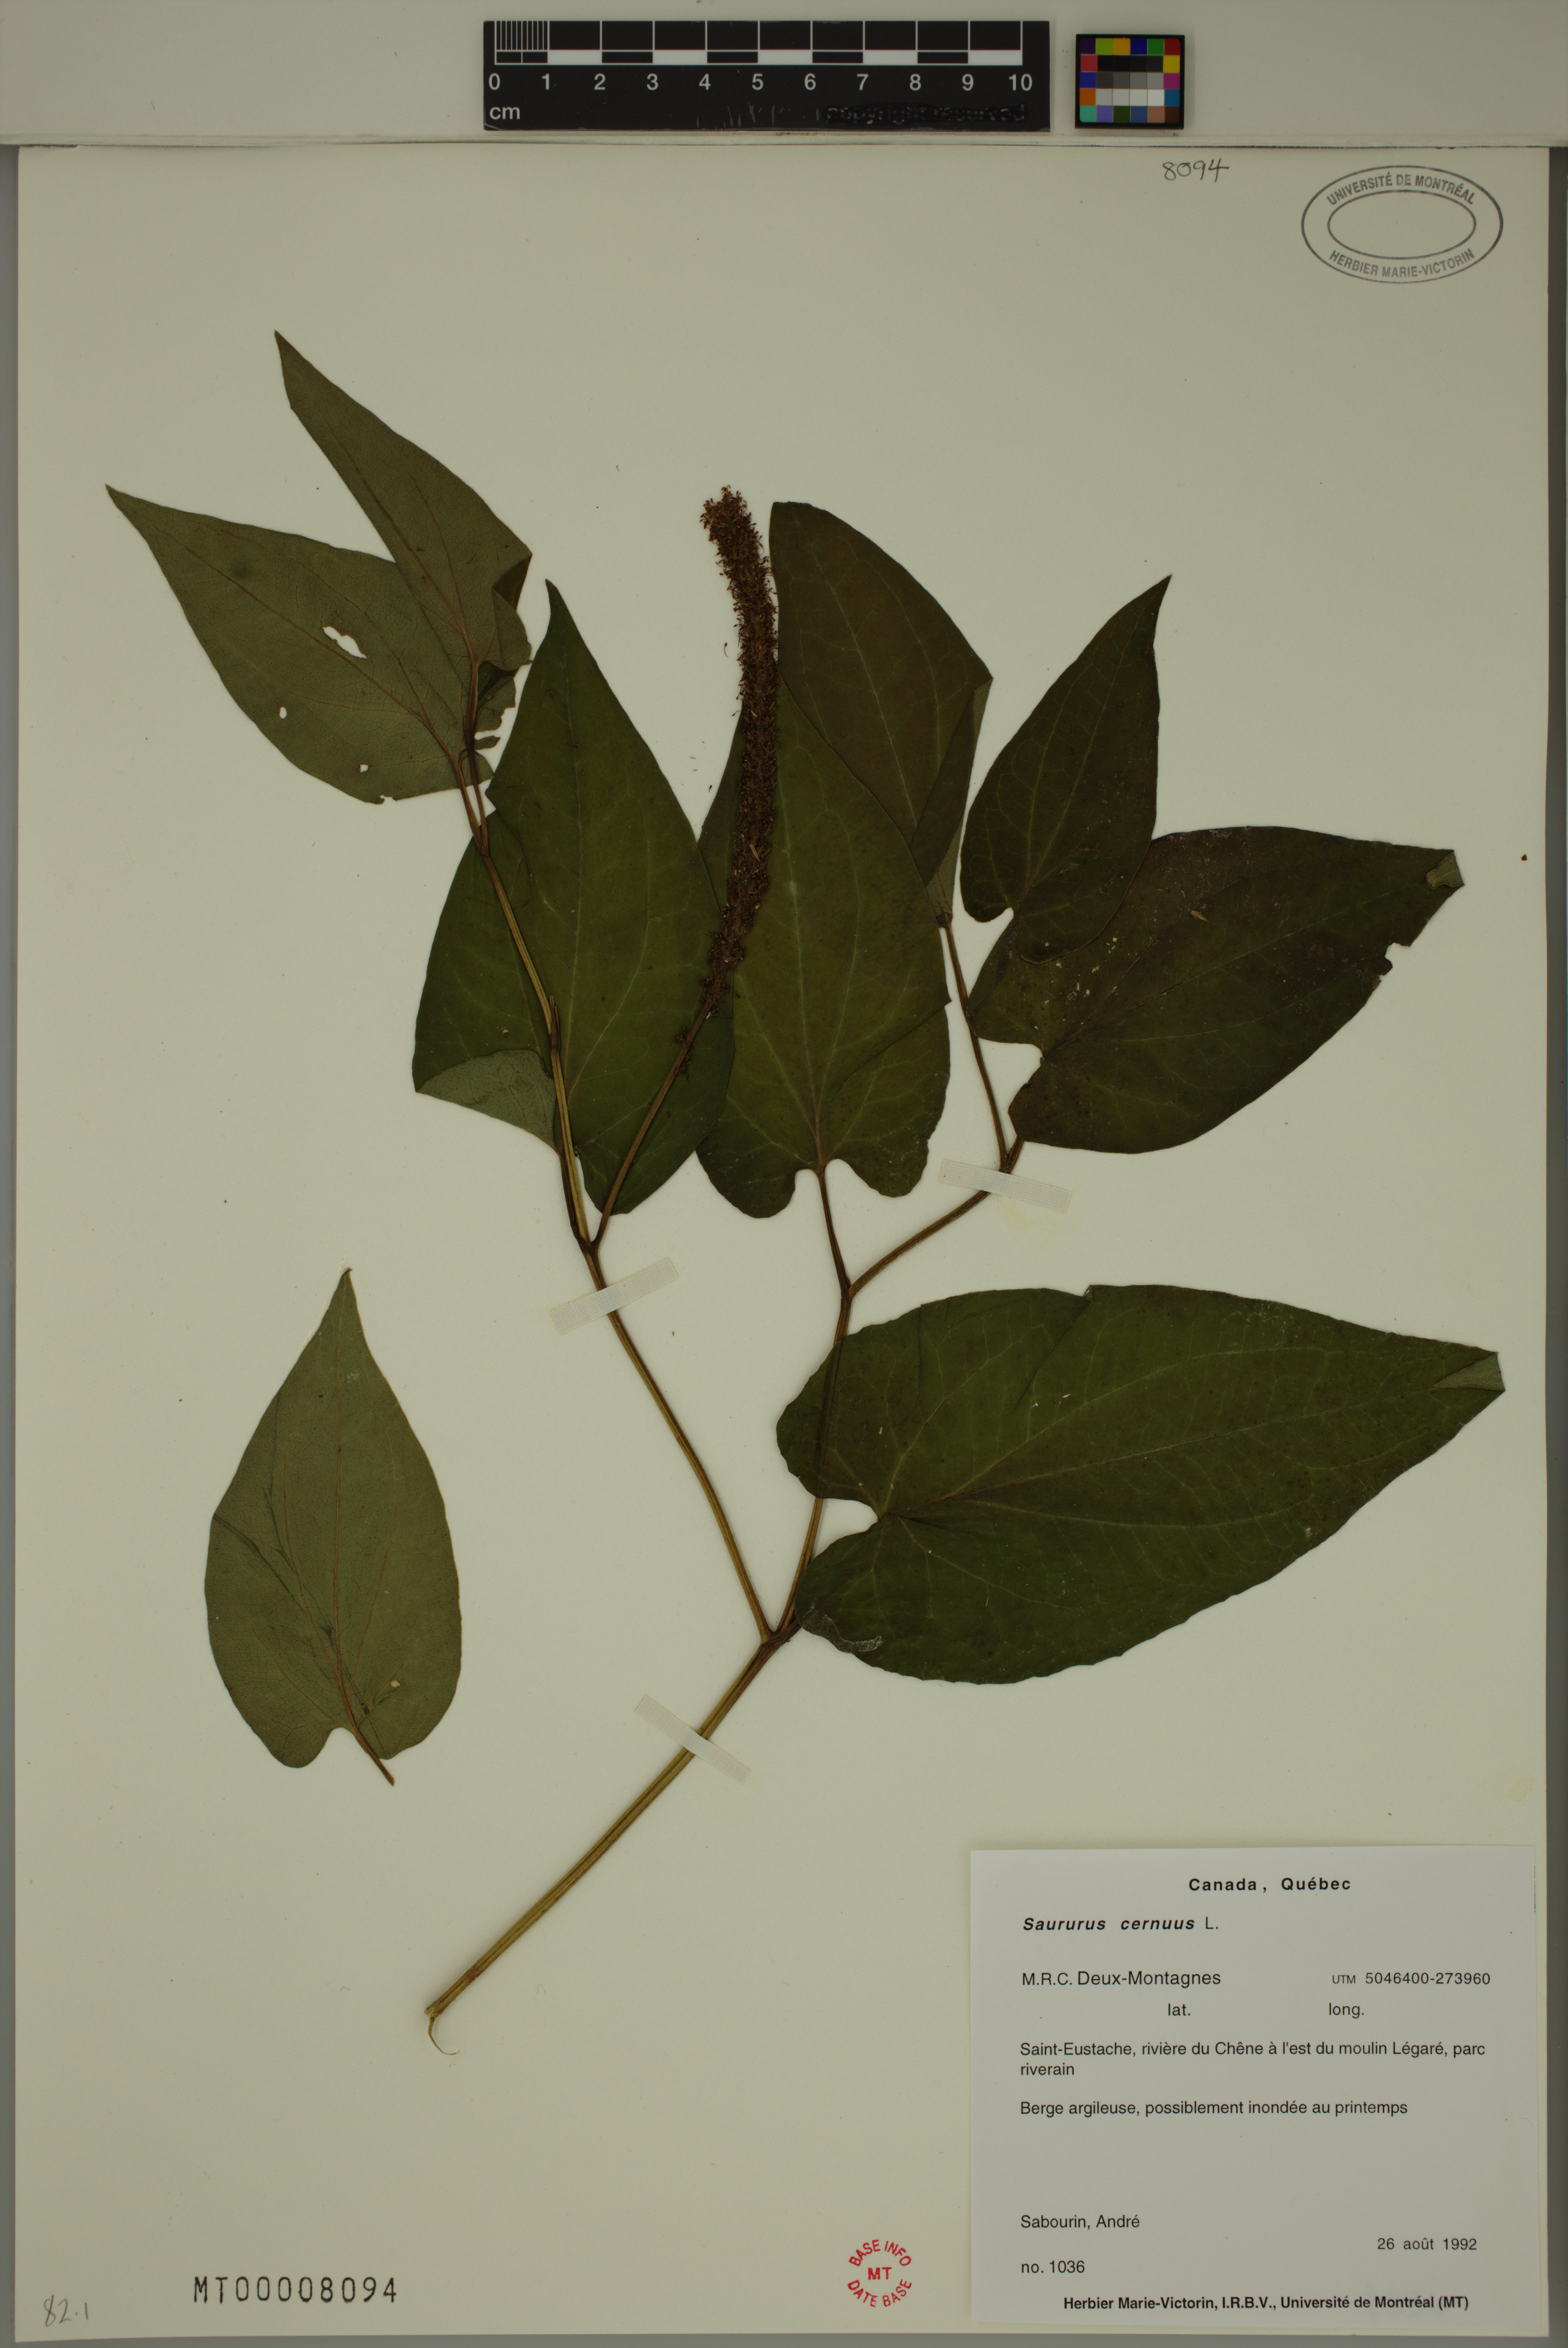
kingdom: Plantae
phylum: Tracheophyta
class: Magnoliopsida
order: Piperales
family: Saururaceae
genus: Saururus
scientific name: Saururus cernuus
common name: Lizard's-tail
